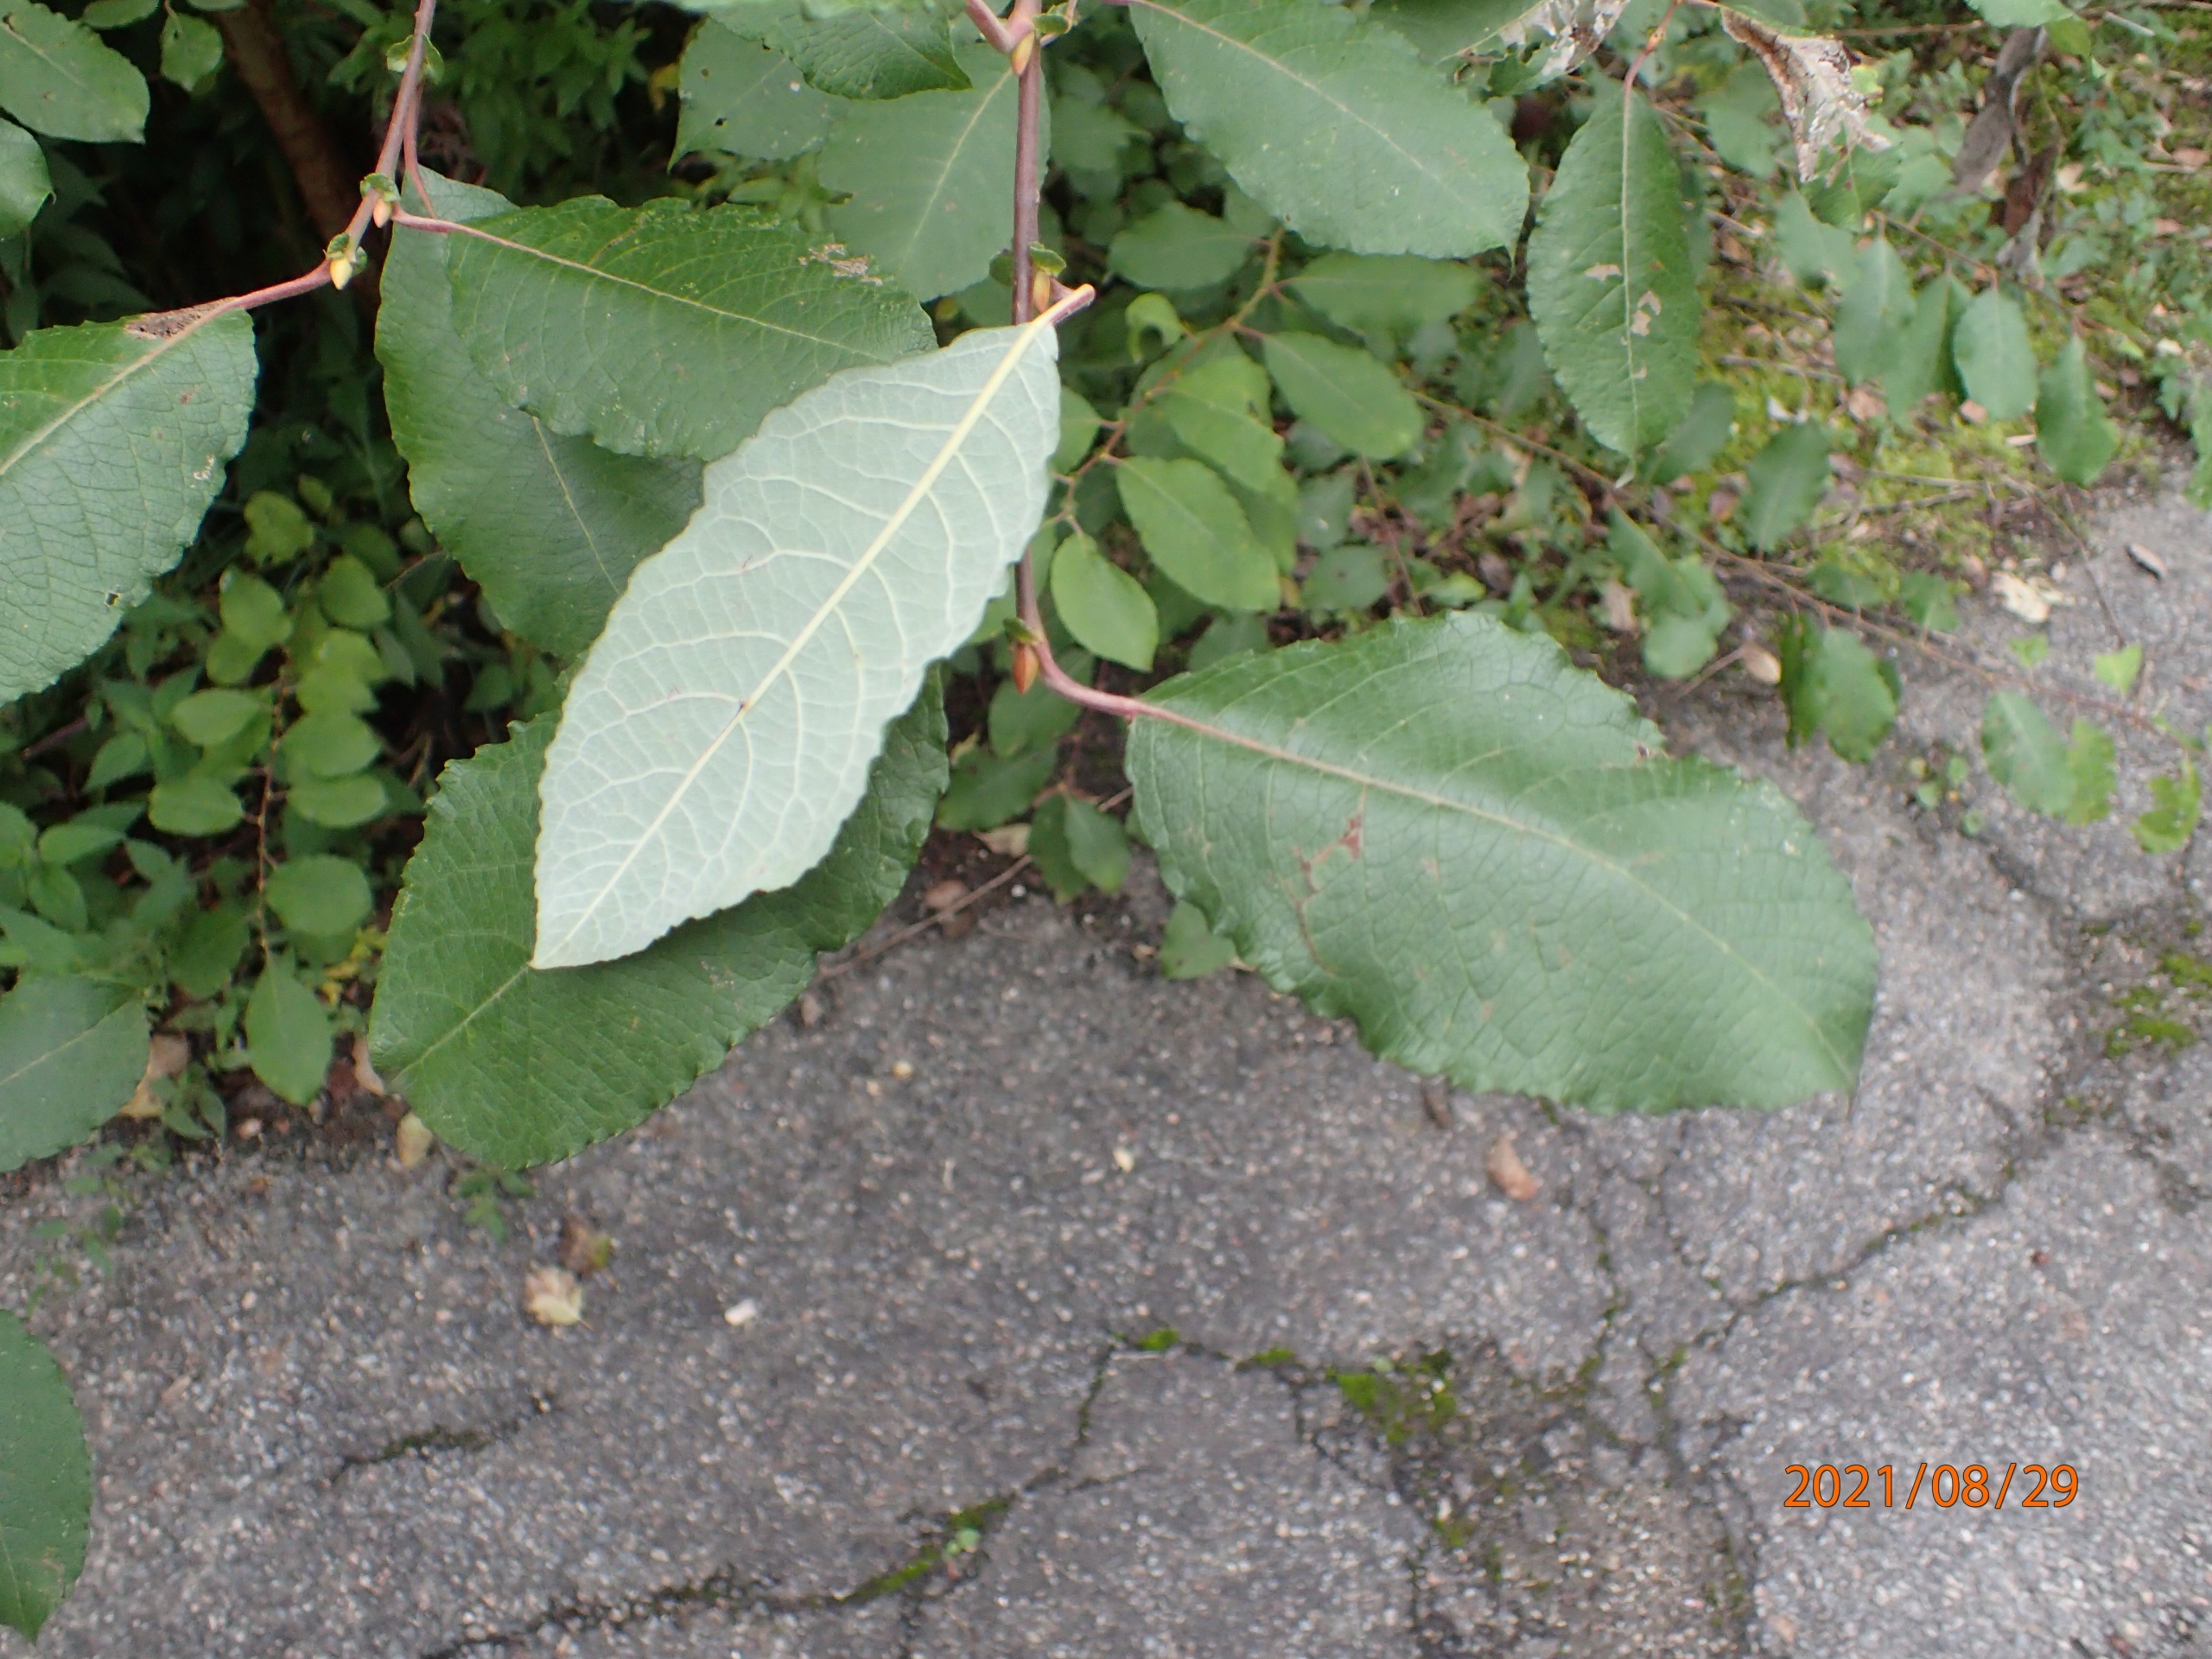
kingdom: Plantae
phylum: Tracheophyta
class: Magnoliopsida
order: Malpighiales
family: Salicaceae
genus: Salix
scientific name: Salix caprea
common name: Selje-pil
